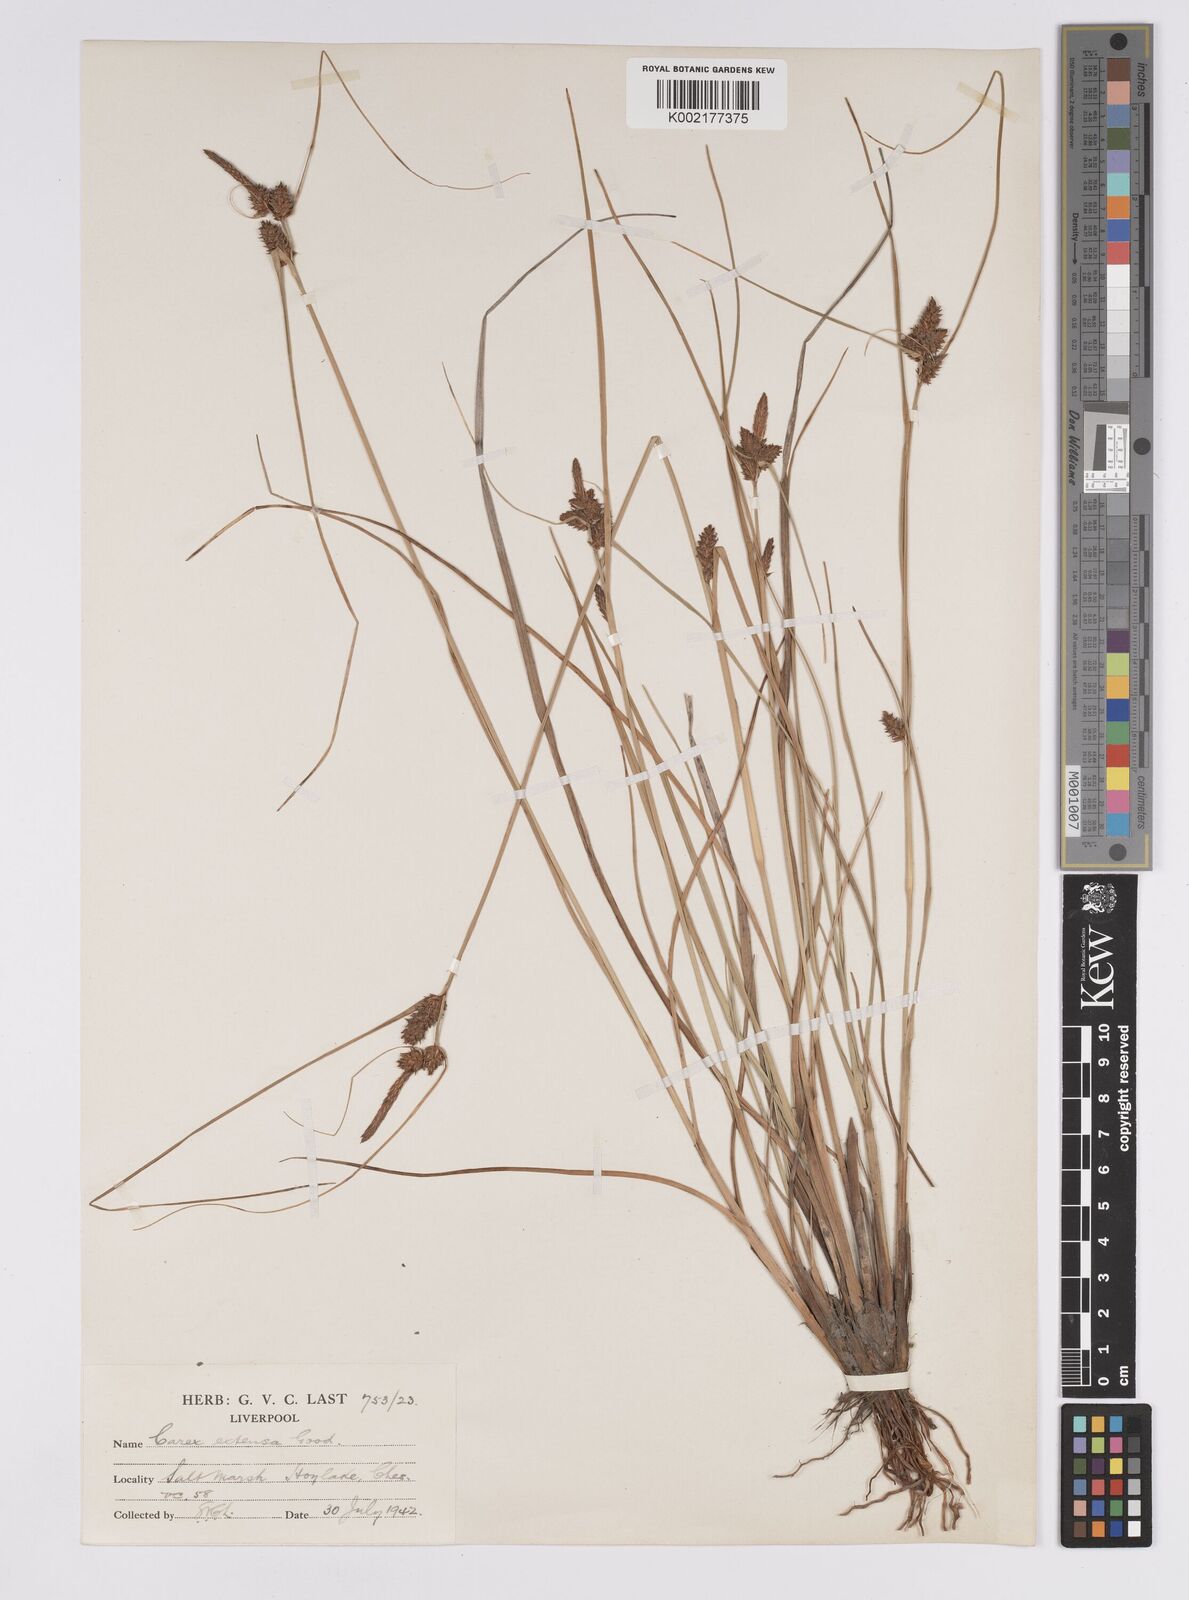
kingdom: Plantae
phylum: Tracheophyta
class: Liliopsida
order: Poales
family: Cyperaceae
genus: Carex
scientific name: Carex extensa
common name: Long-bracted sedge
